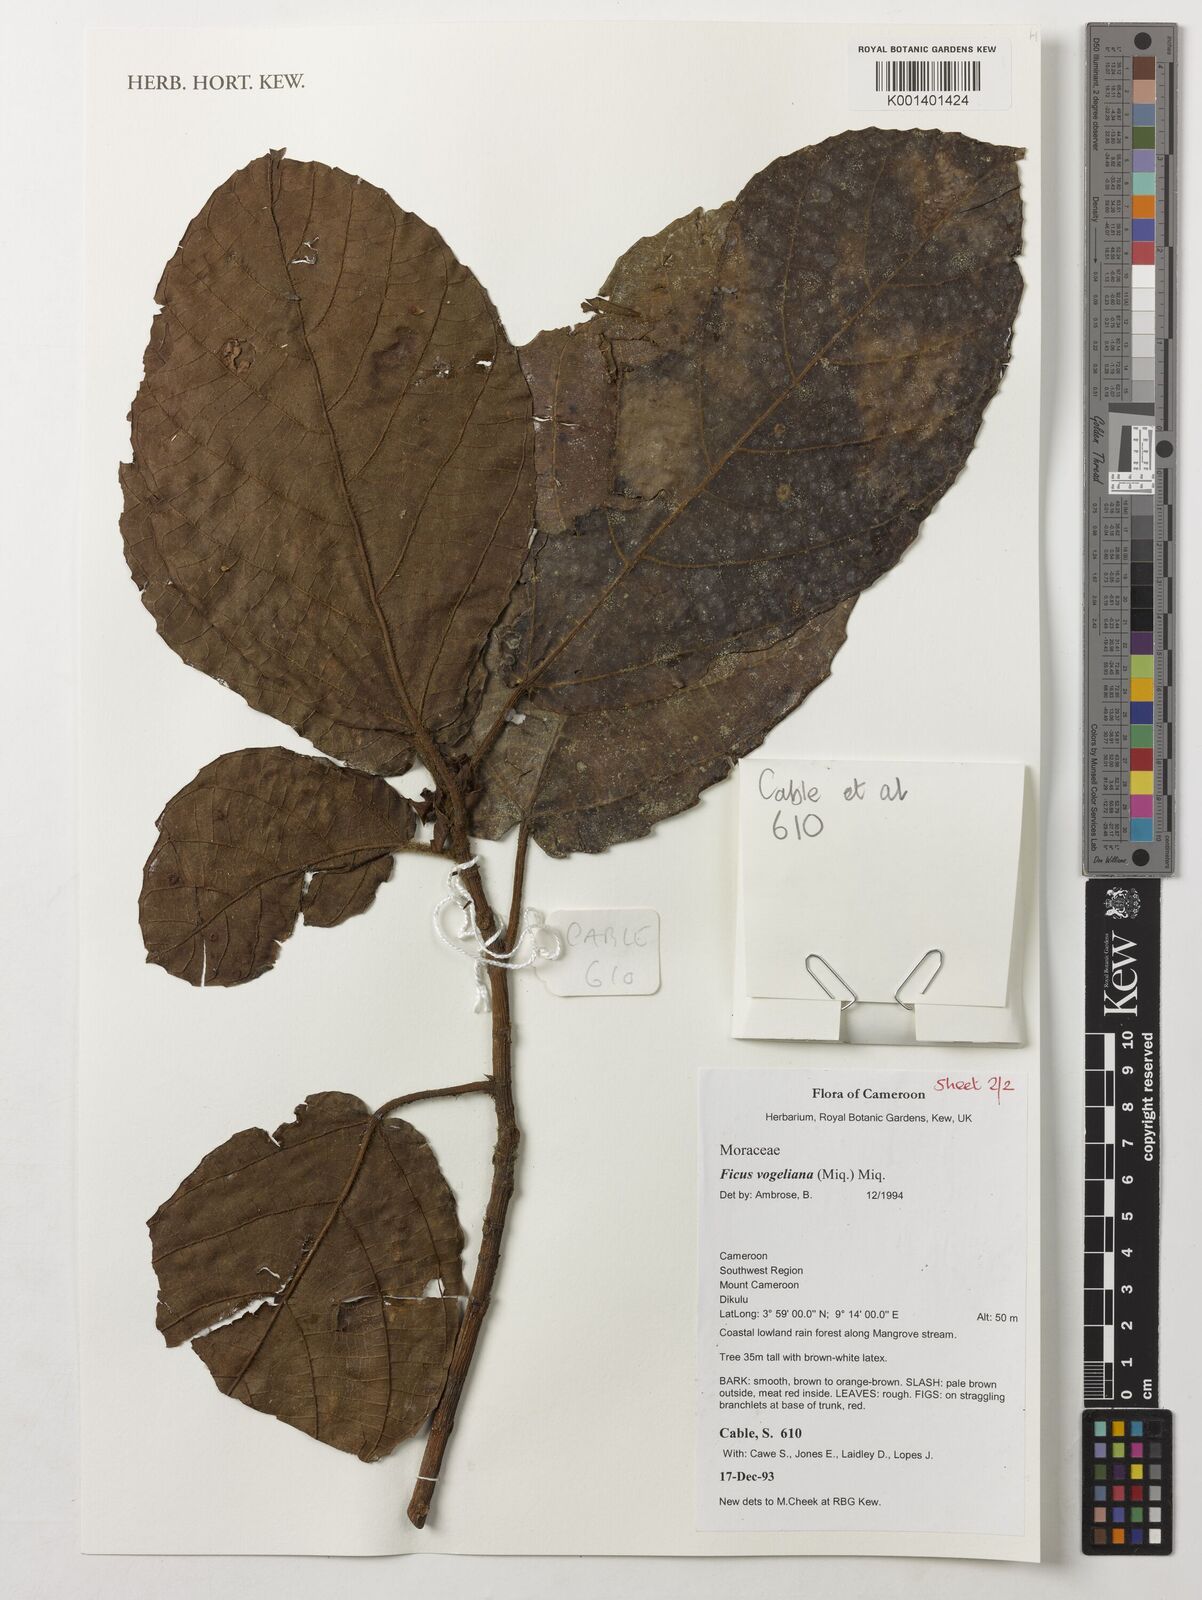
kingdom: Plantae
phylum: Tracheophyta
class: Magnoliopsida
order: Rosales
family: Moraceae
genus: Ficus
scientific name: Ficus vogeliana
